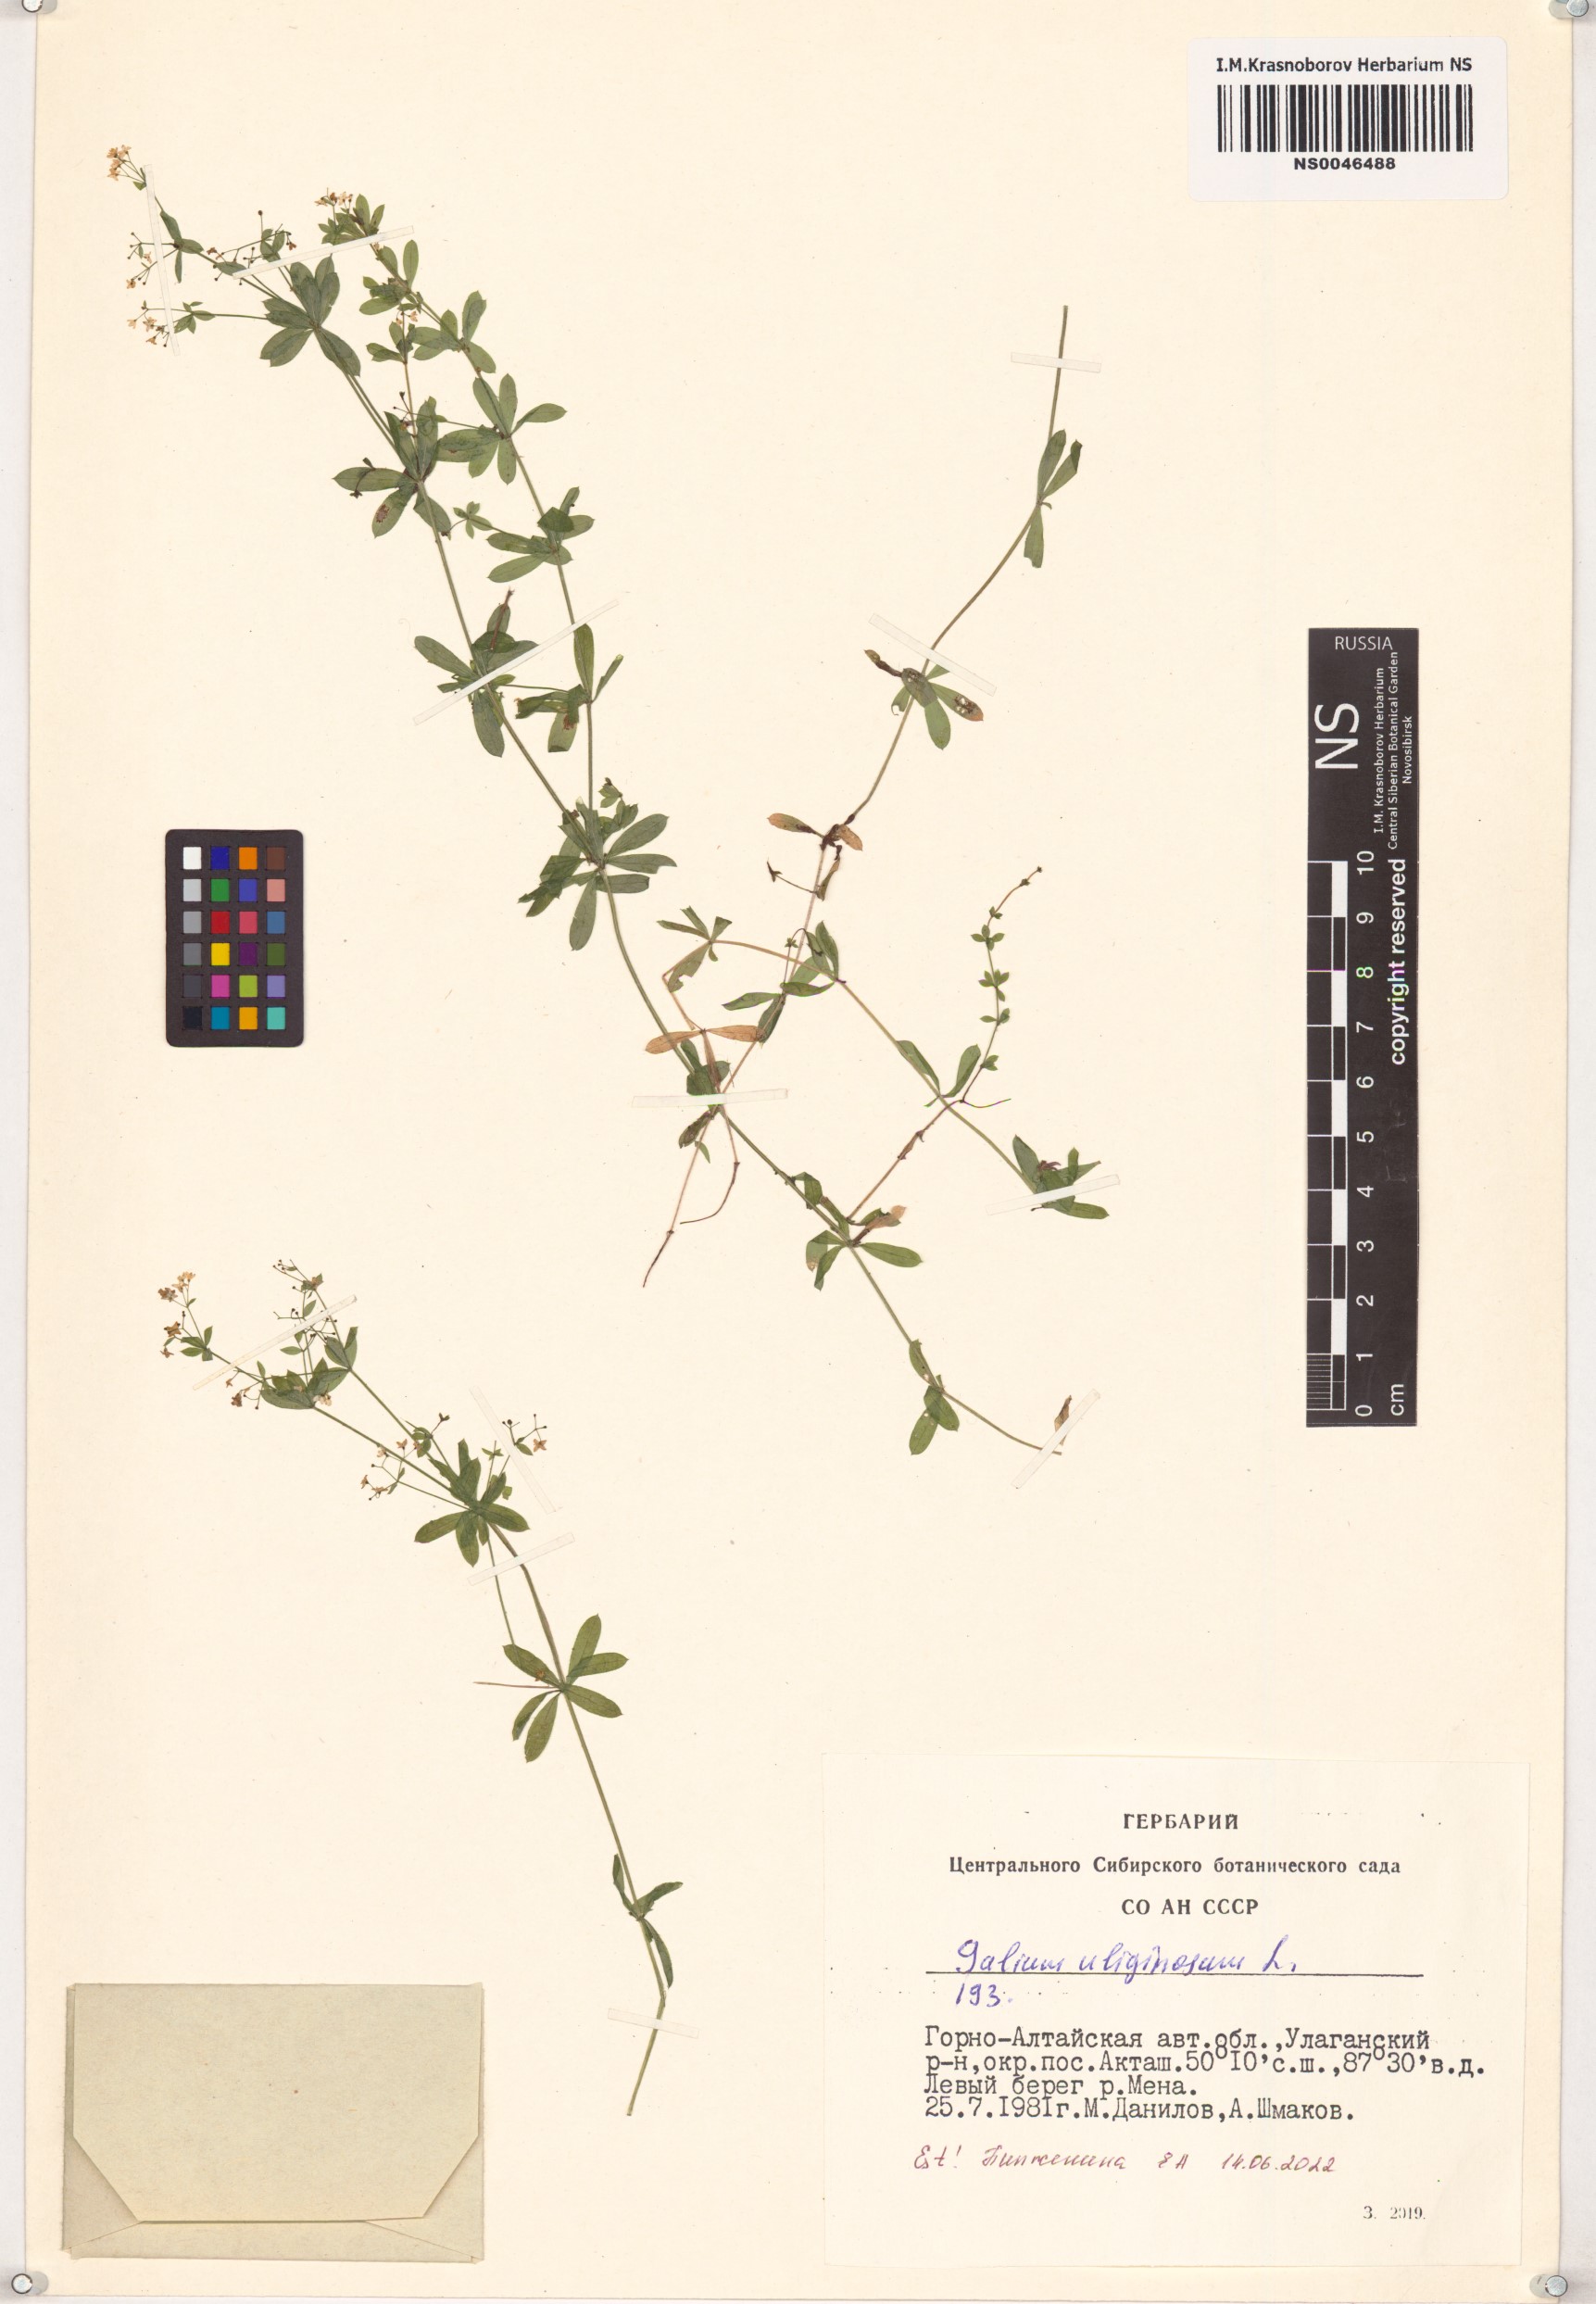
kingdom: Plantae
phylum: Tracheophyta
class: Magnoliopsida
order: Gentianales
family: Rubiaceae
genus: Galium
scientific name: Galium uliginosum
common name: Fen bedstraw
